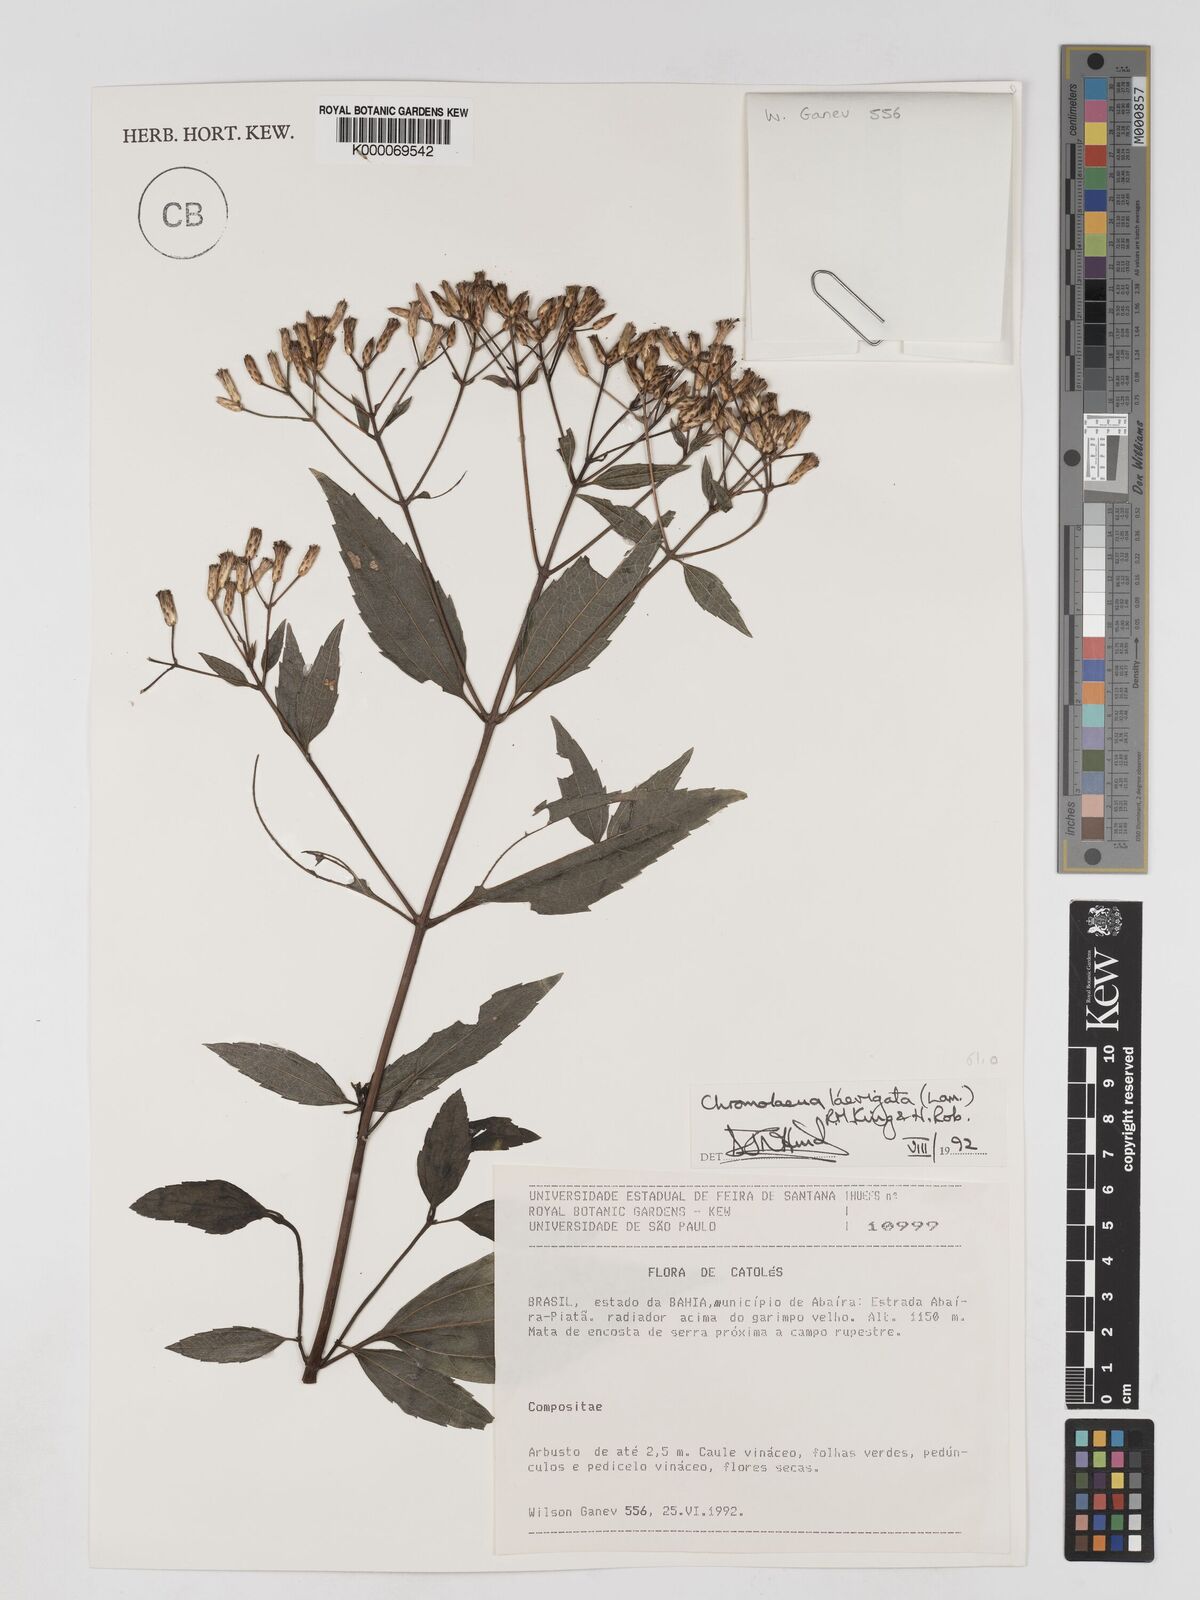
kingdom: Plantae
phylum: Tracheophyta
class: Magnoliopsida
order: Asterales
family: Asteraceae
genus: Chromolaena
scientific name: Chromolaena laevigata
